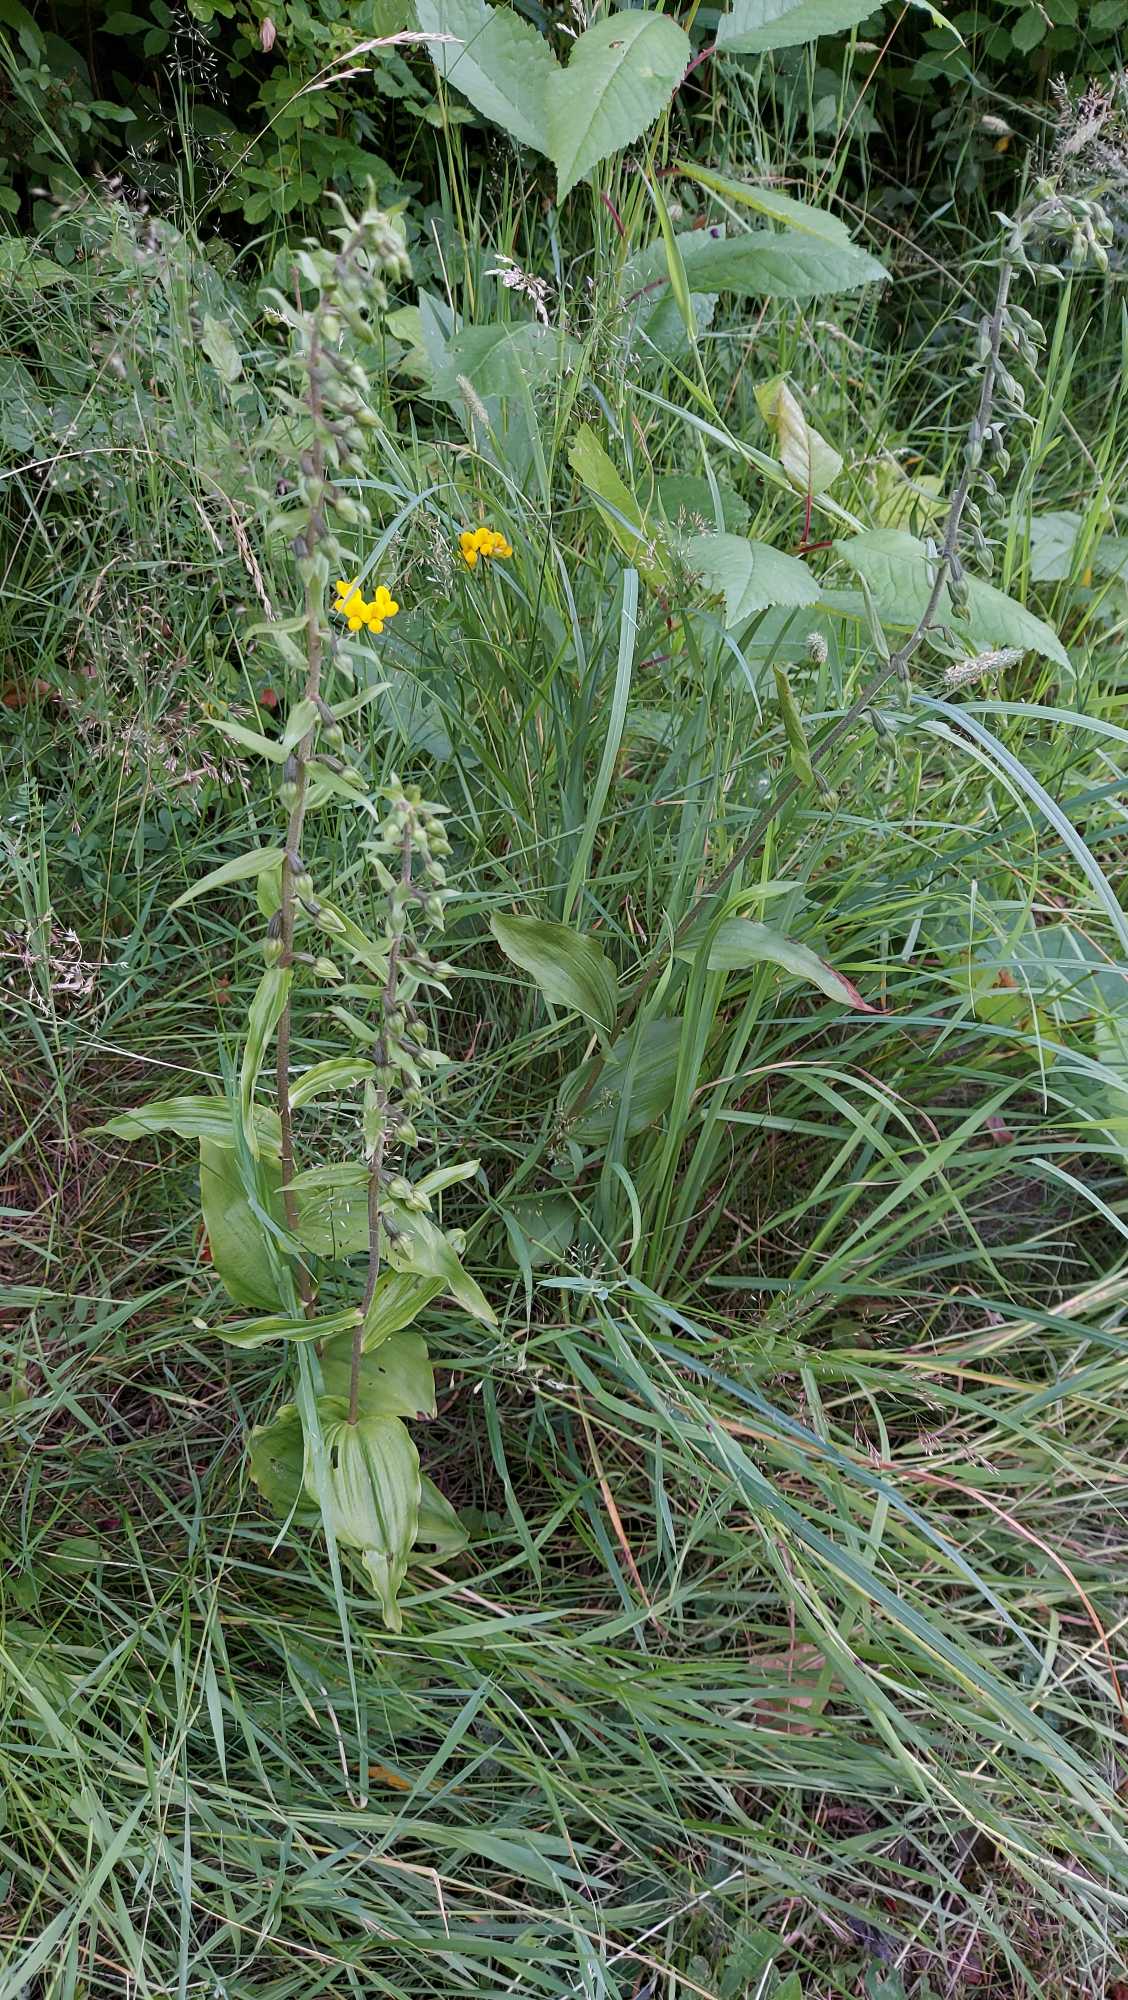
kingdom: Plantae
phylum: Tracheophyta
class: Liliopsida
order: Asparagales
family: Orchidaceae
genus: Epipactis
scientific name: Epipactis helleborine
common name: Skov-hullæbe
